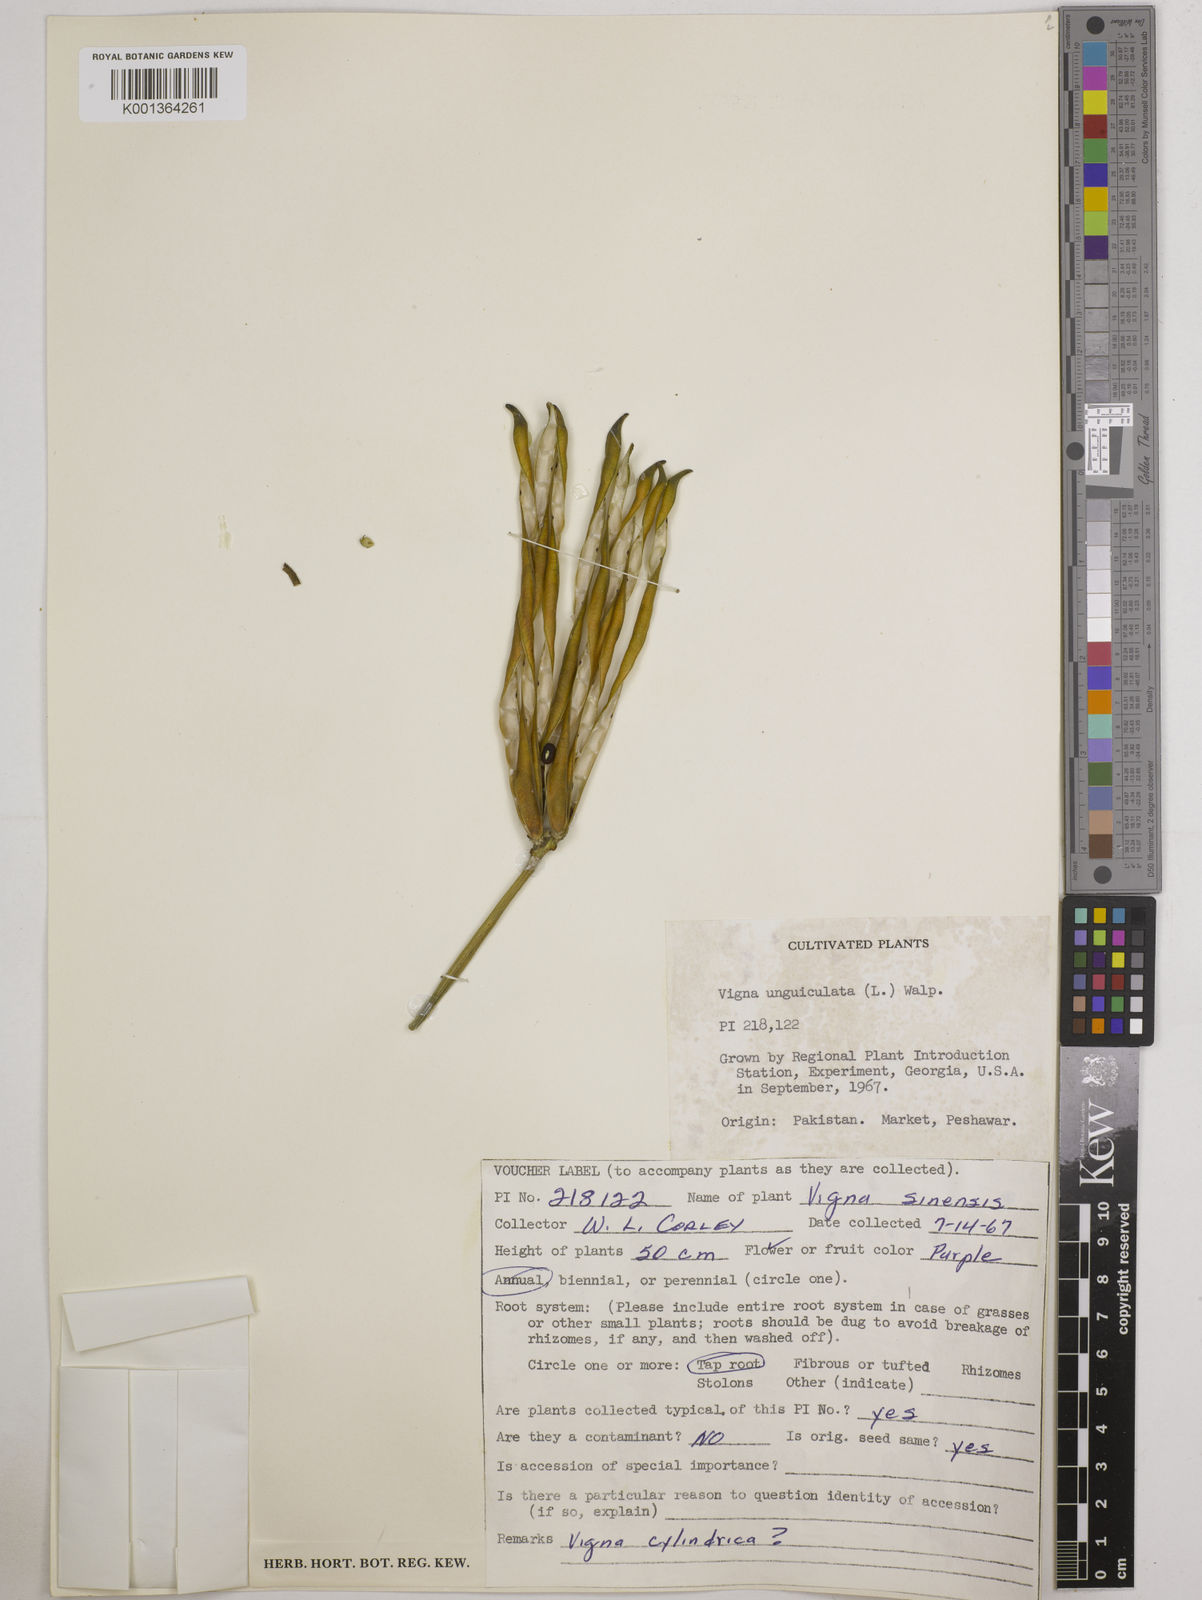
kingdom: Plantae
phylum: Tracheophyta
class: Magnoliopsida
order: Fabales
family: Fabaceae
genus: Vigna
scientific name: Vigna
